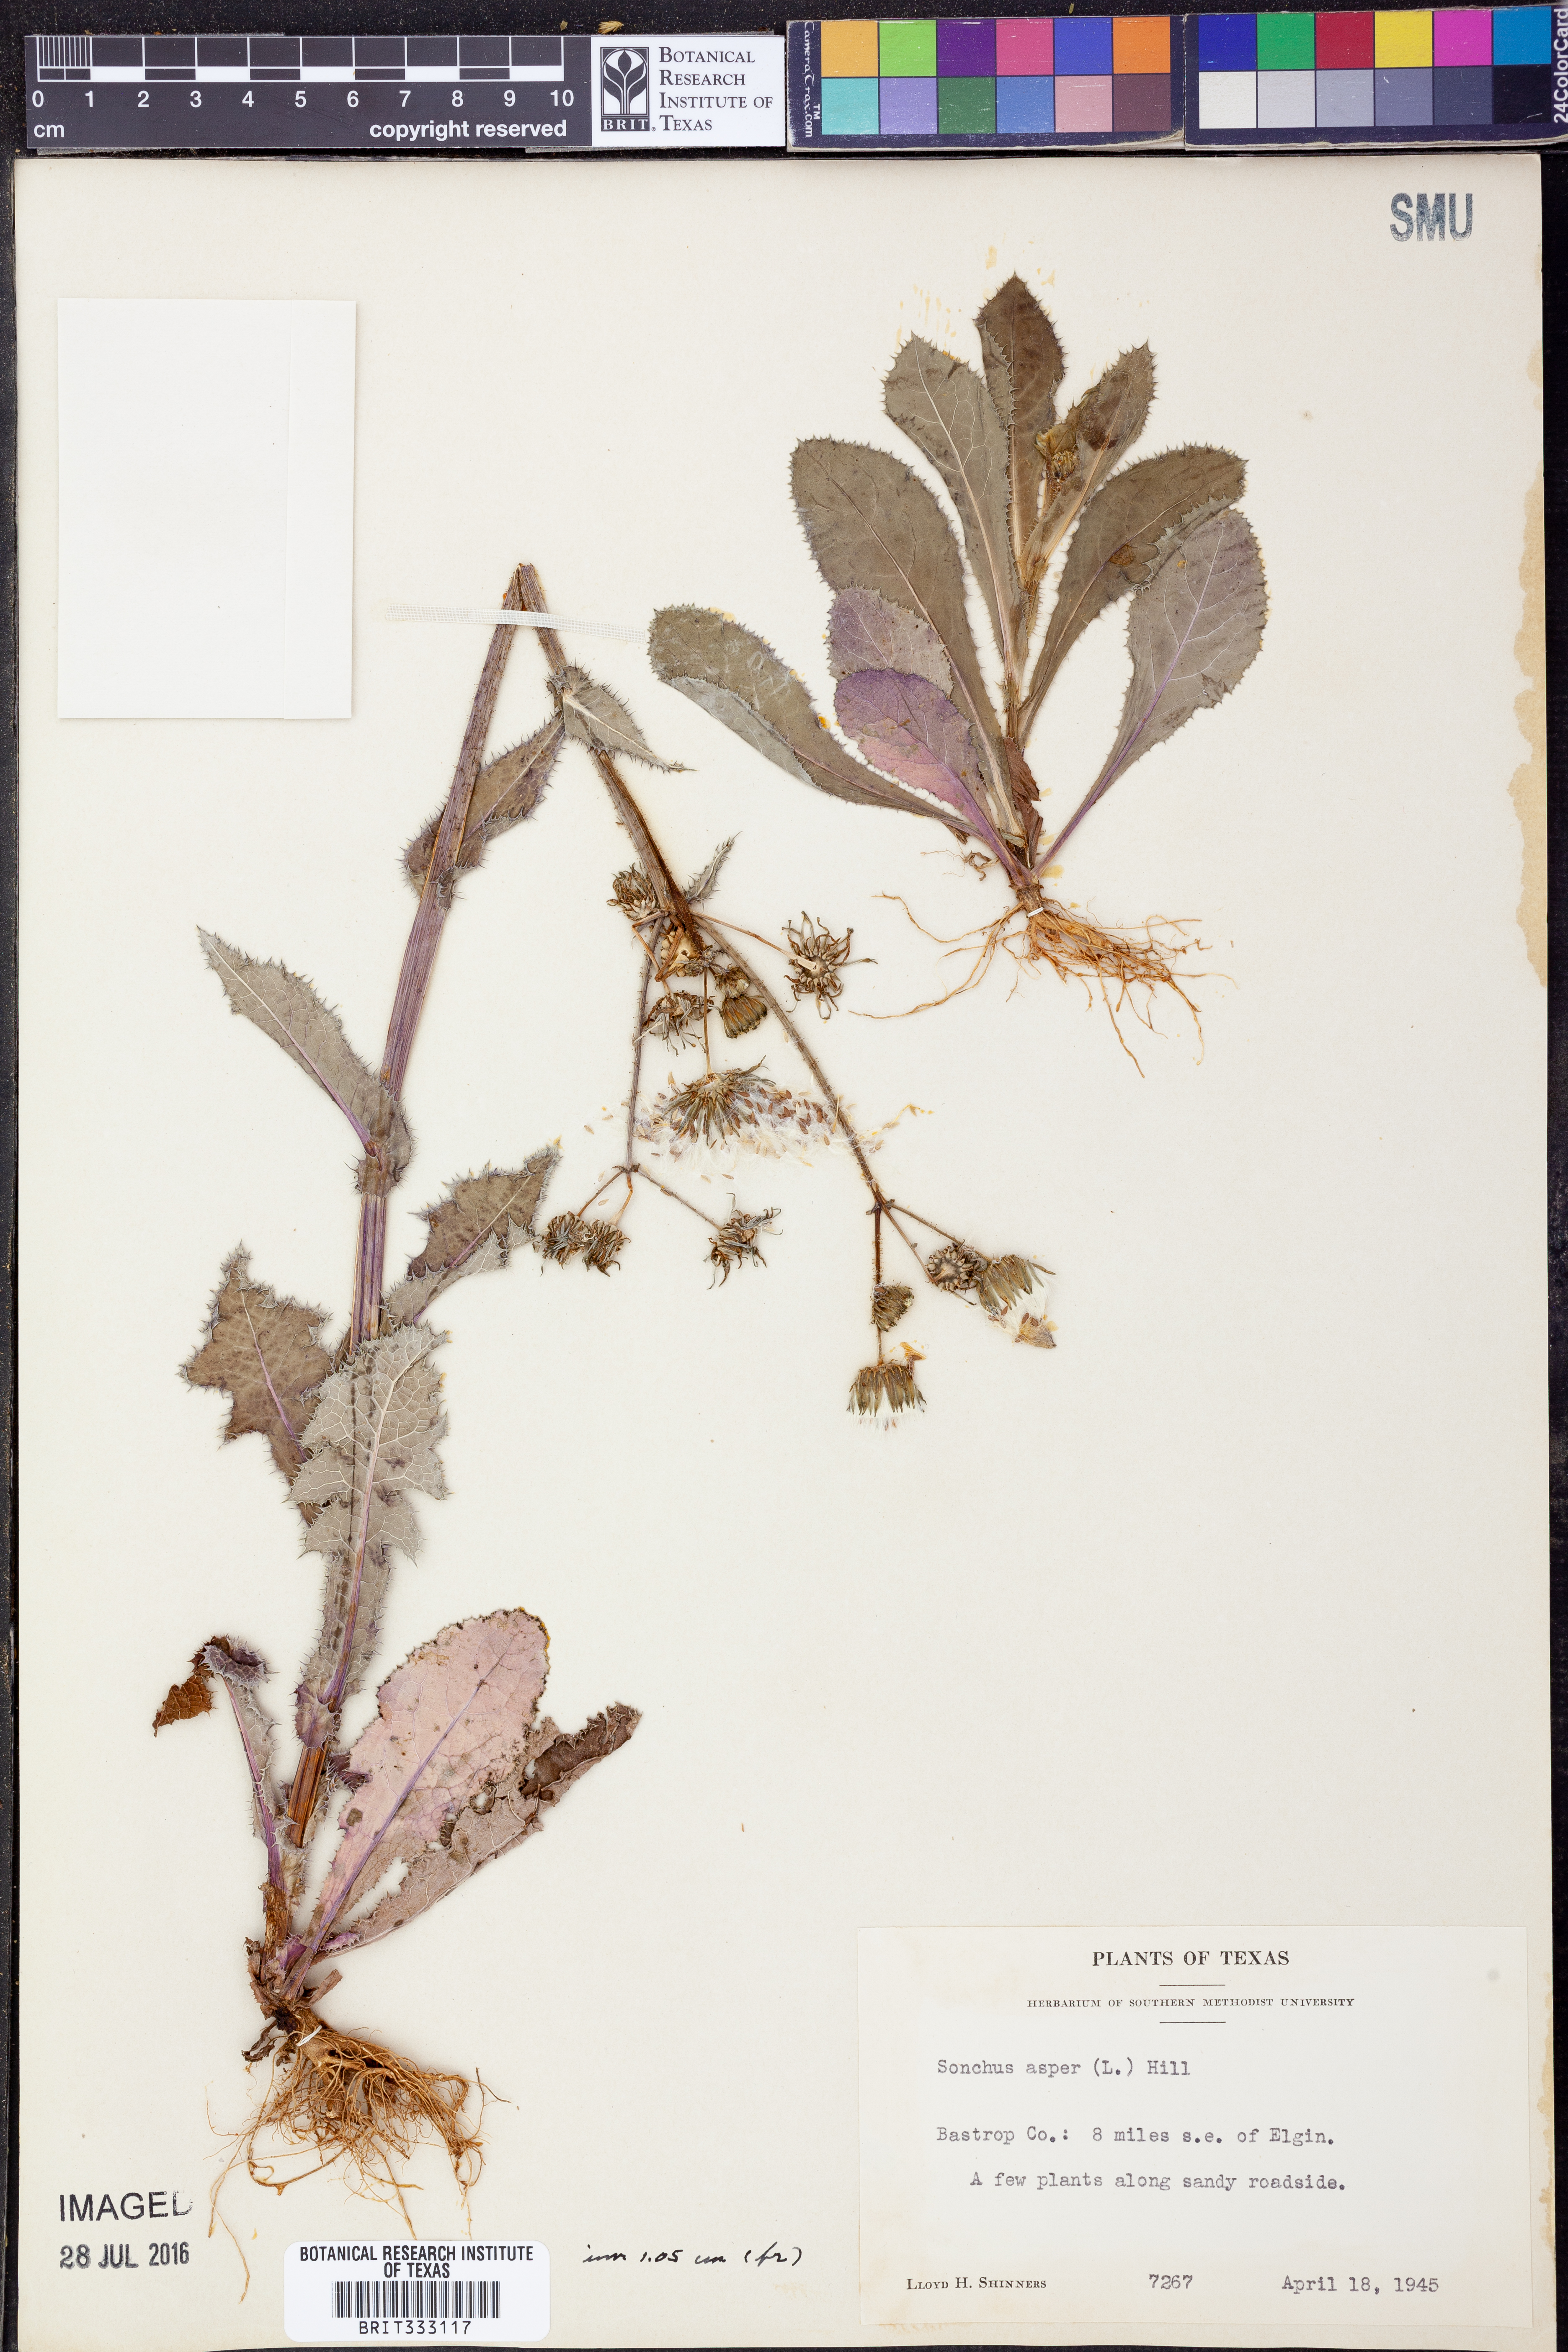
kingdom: Plantae
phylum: Tracheophyta
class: Magnoliopsida
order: Asterales
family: Asteraceae
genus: Sonchus
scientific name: Sonchus asper
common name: Prickly sow-thistle
